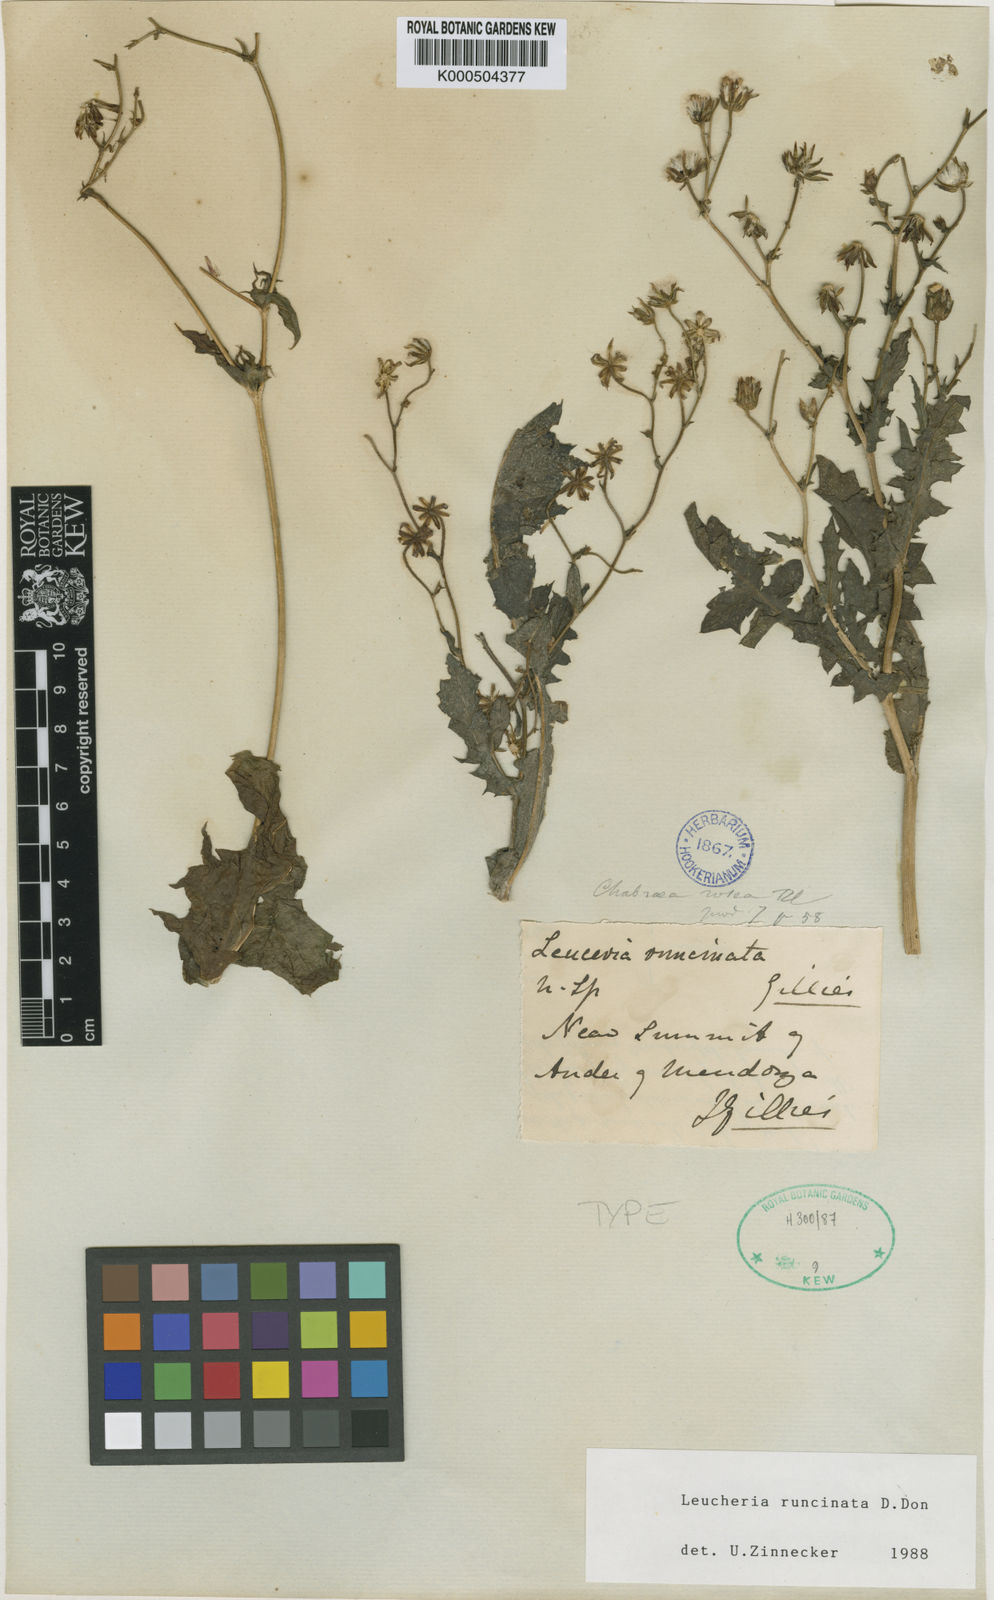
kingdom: Plantae
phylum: Tracheophyta
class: Magnoliopsida
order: Asterales
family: Asteraceae
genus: Leucheria
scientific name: Leucheria runcinata
